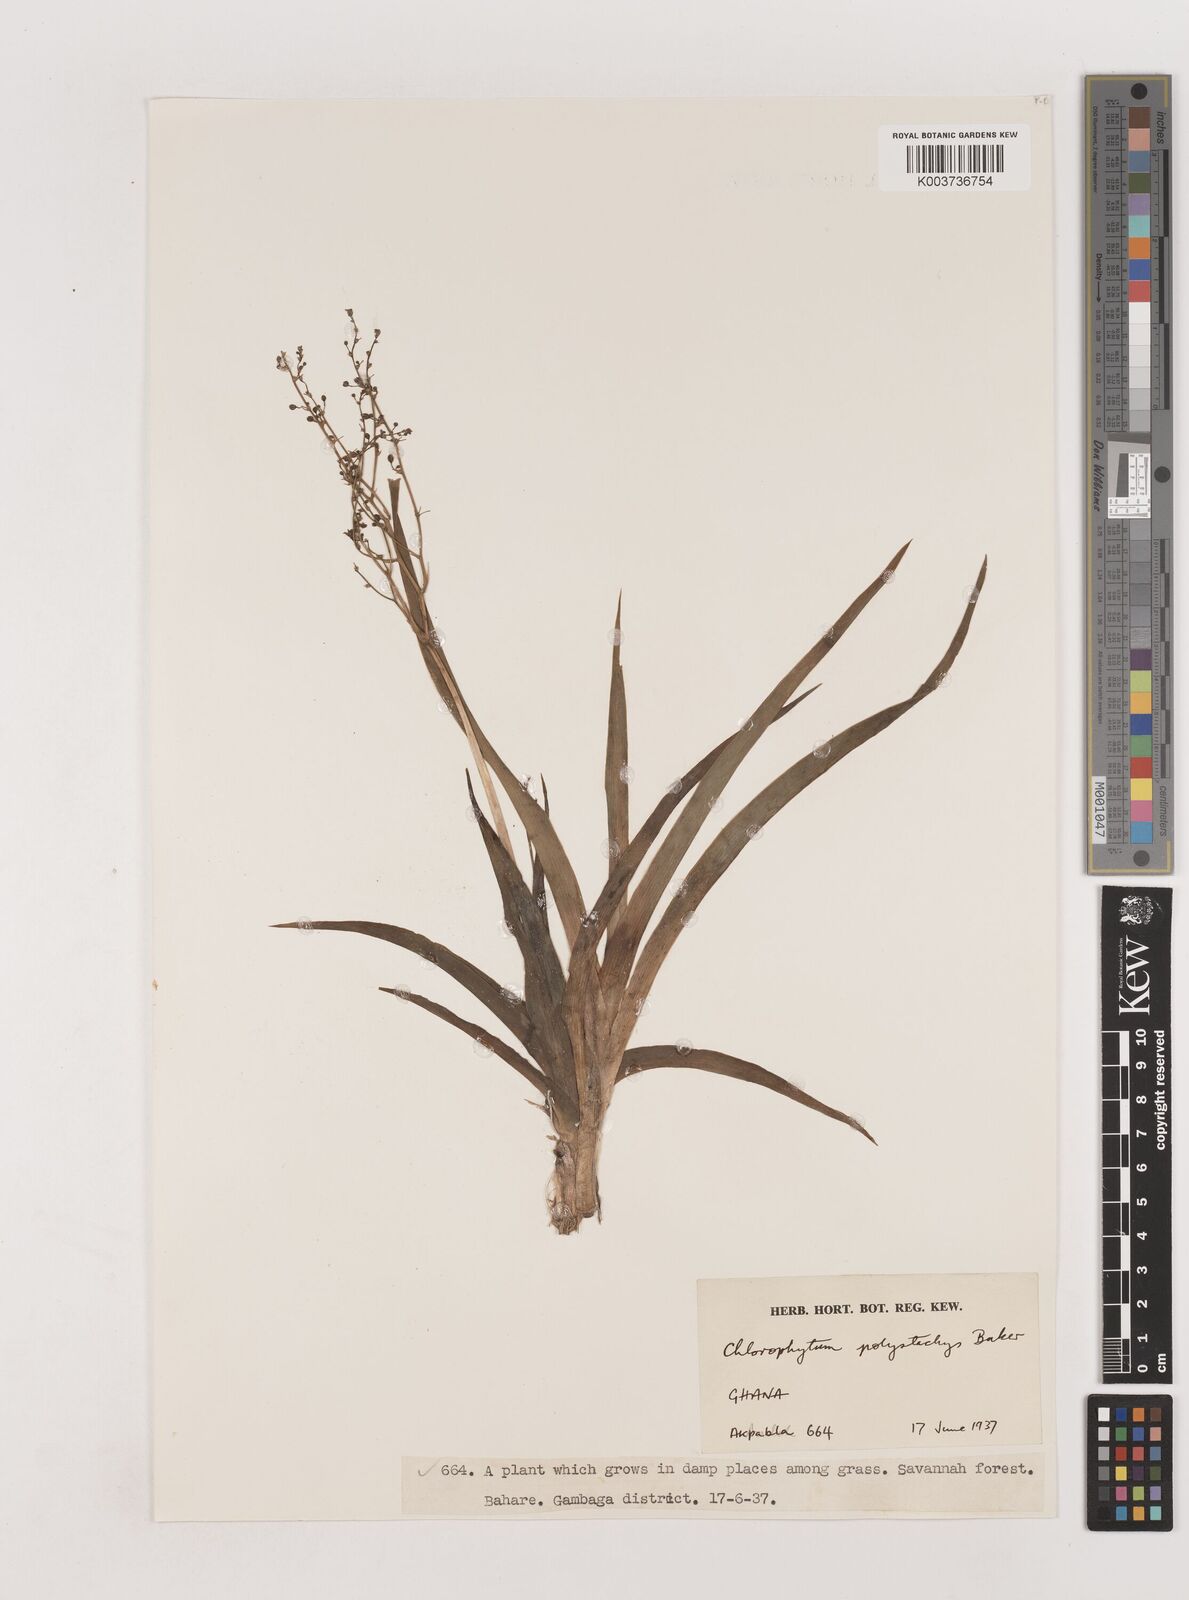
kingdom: Plantae
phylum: Tracheophyta
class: Liliopsida
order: Asparagales
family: Asparagaceae
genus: Chlorophytum
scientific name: Chlorophytum polystachys
